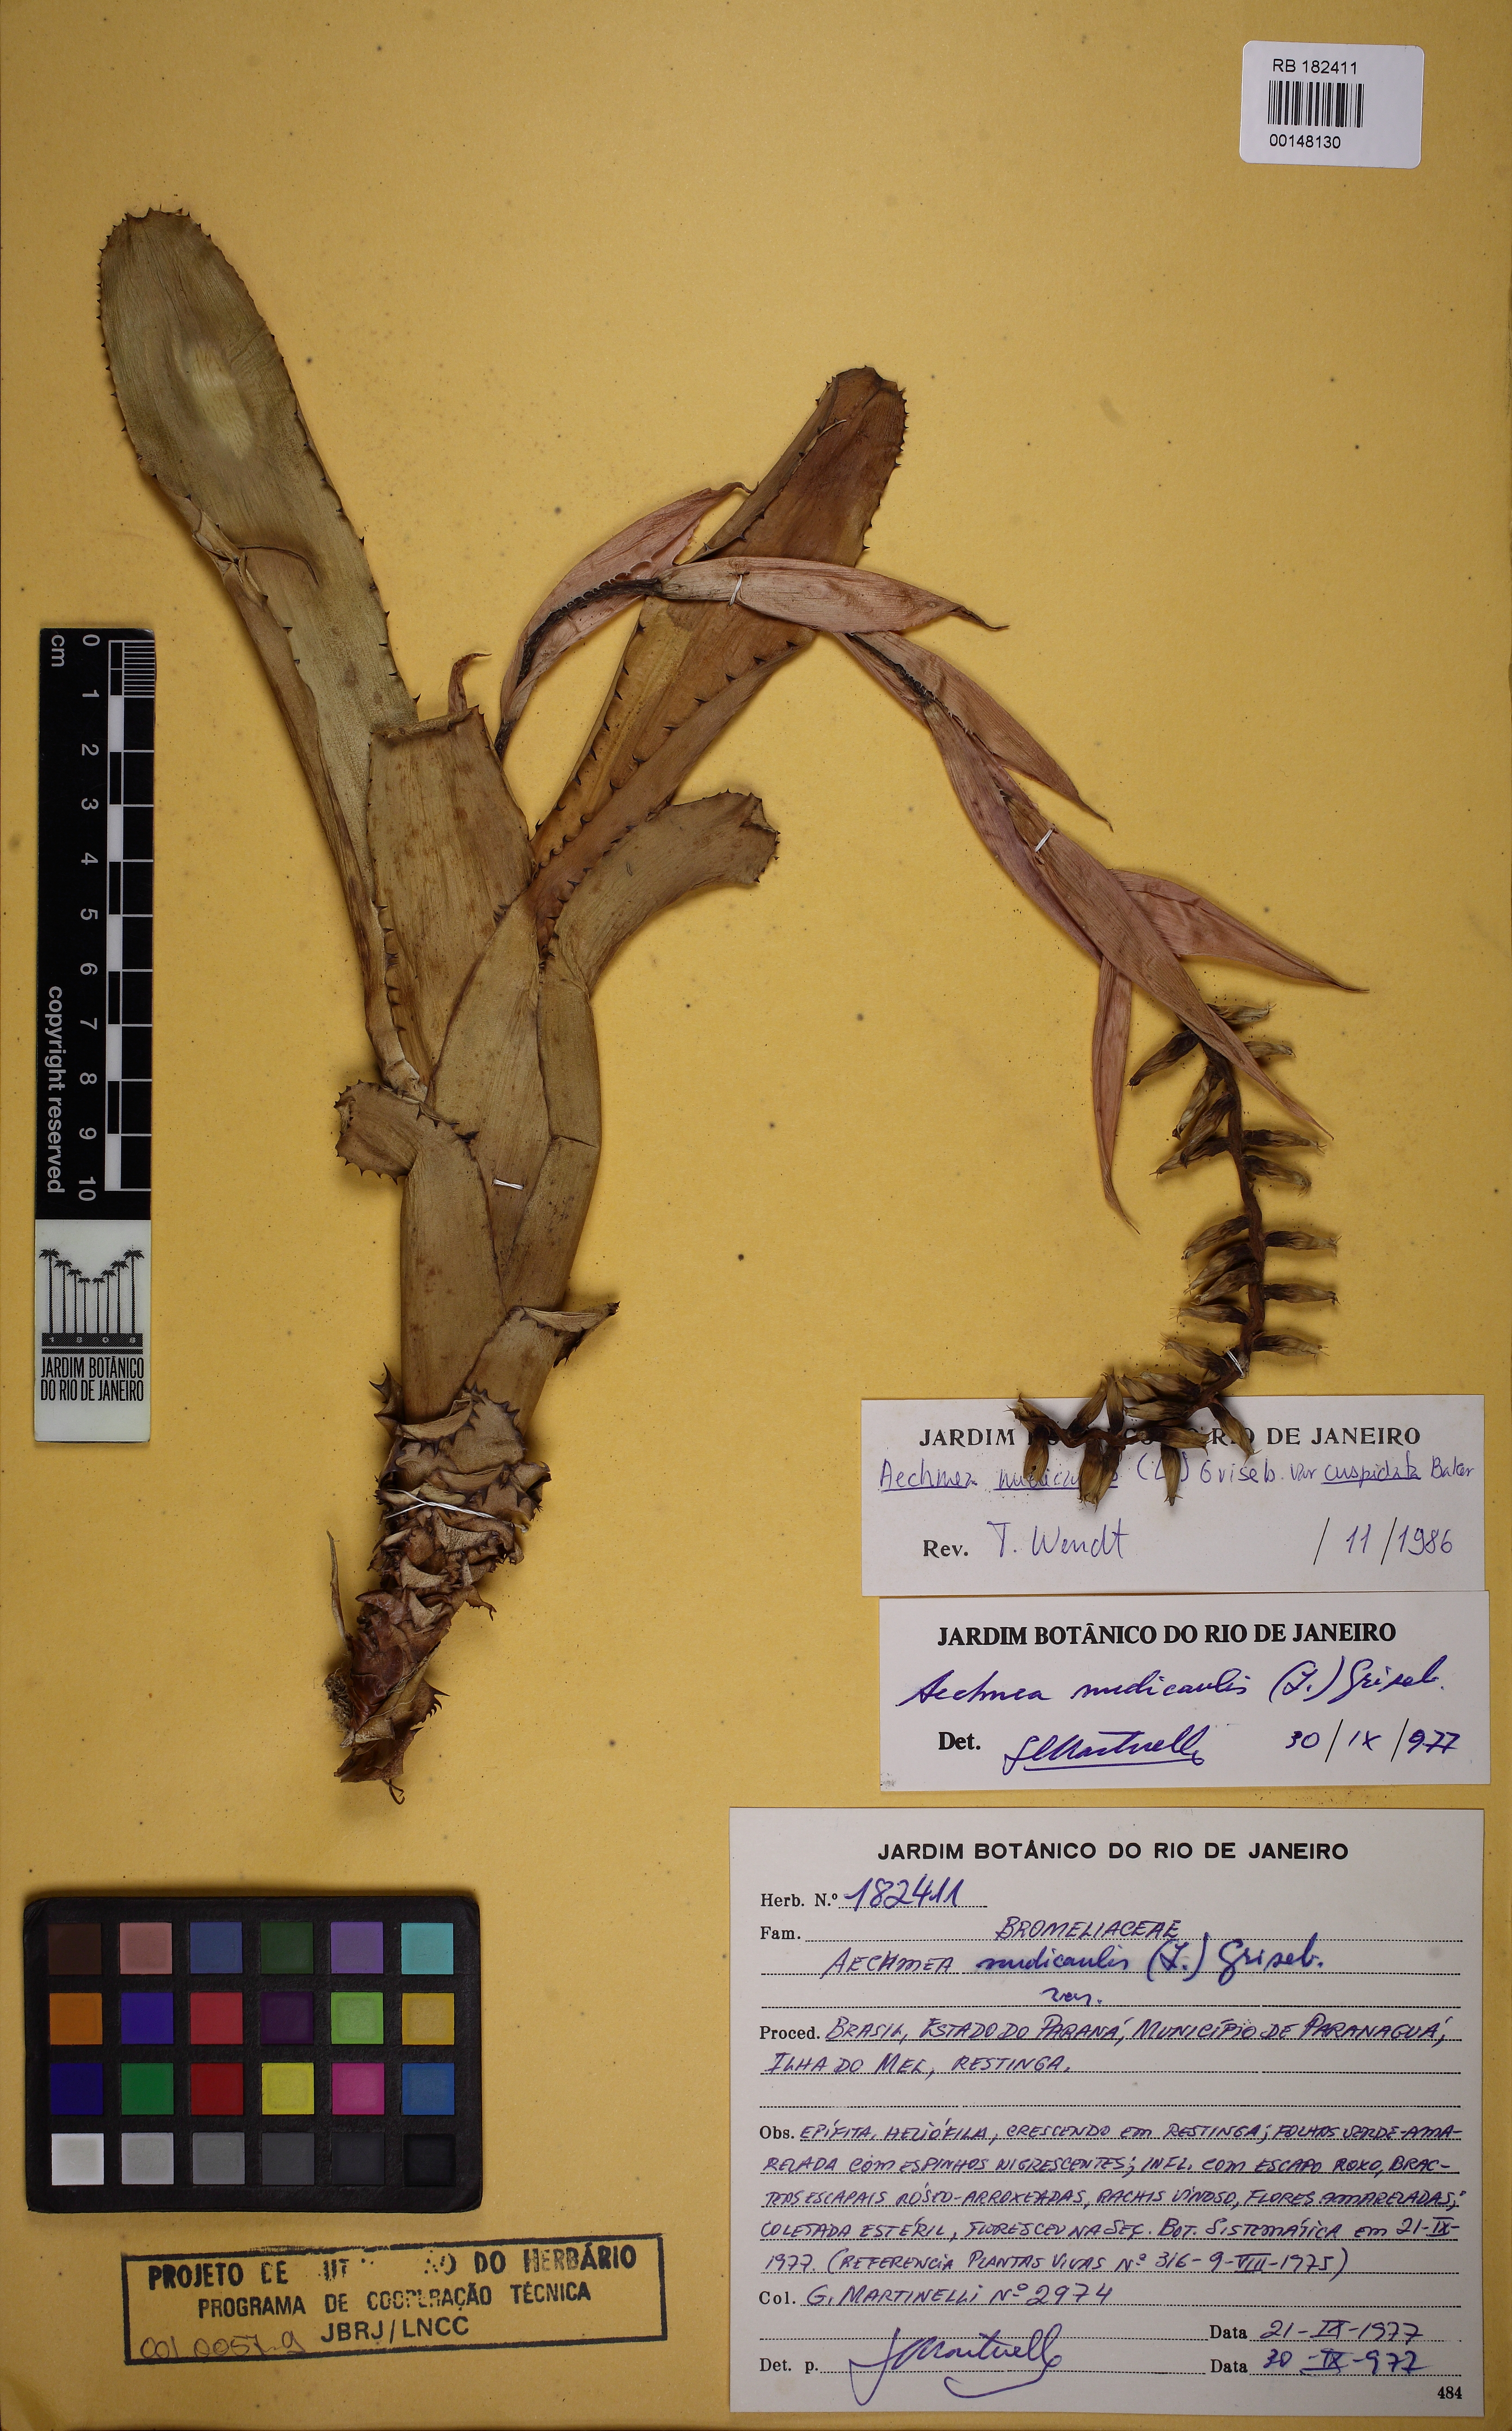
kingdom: Plantae
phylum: Tracheophyta
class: Liliopsida
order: Poales
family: Bromeliaceae
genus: Aechmea
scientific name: Aechmea nudicaulis
